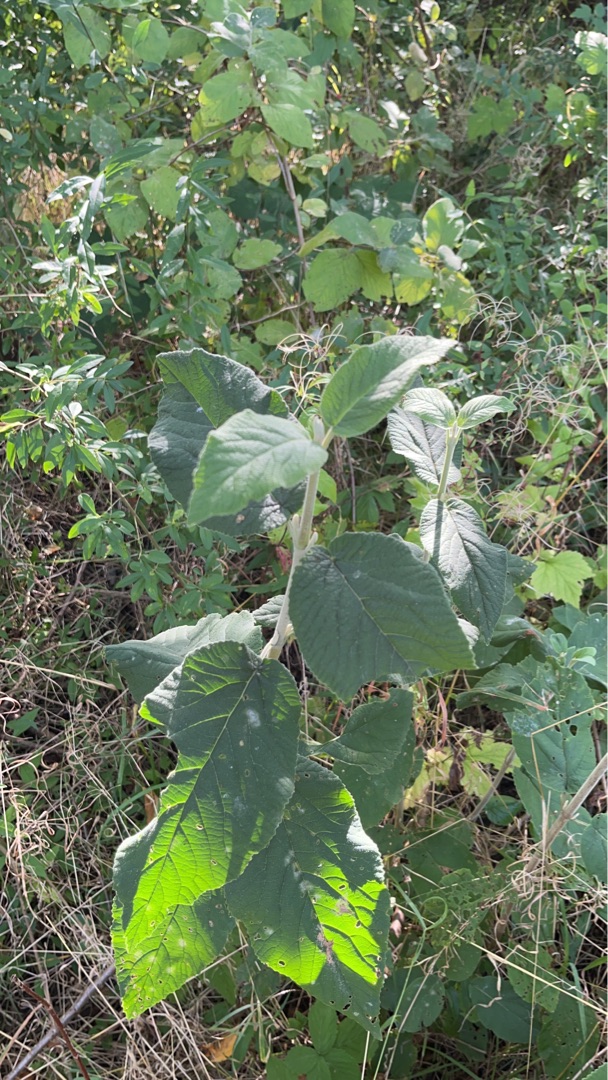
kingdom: Plantae
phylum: Tracheophyta
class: Magnoliopsida
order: Dipsacales
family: Viburnaceae
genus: Viburnum
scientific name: Viburnum lantana
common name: Pibe-kvalkved
